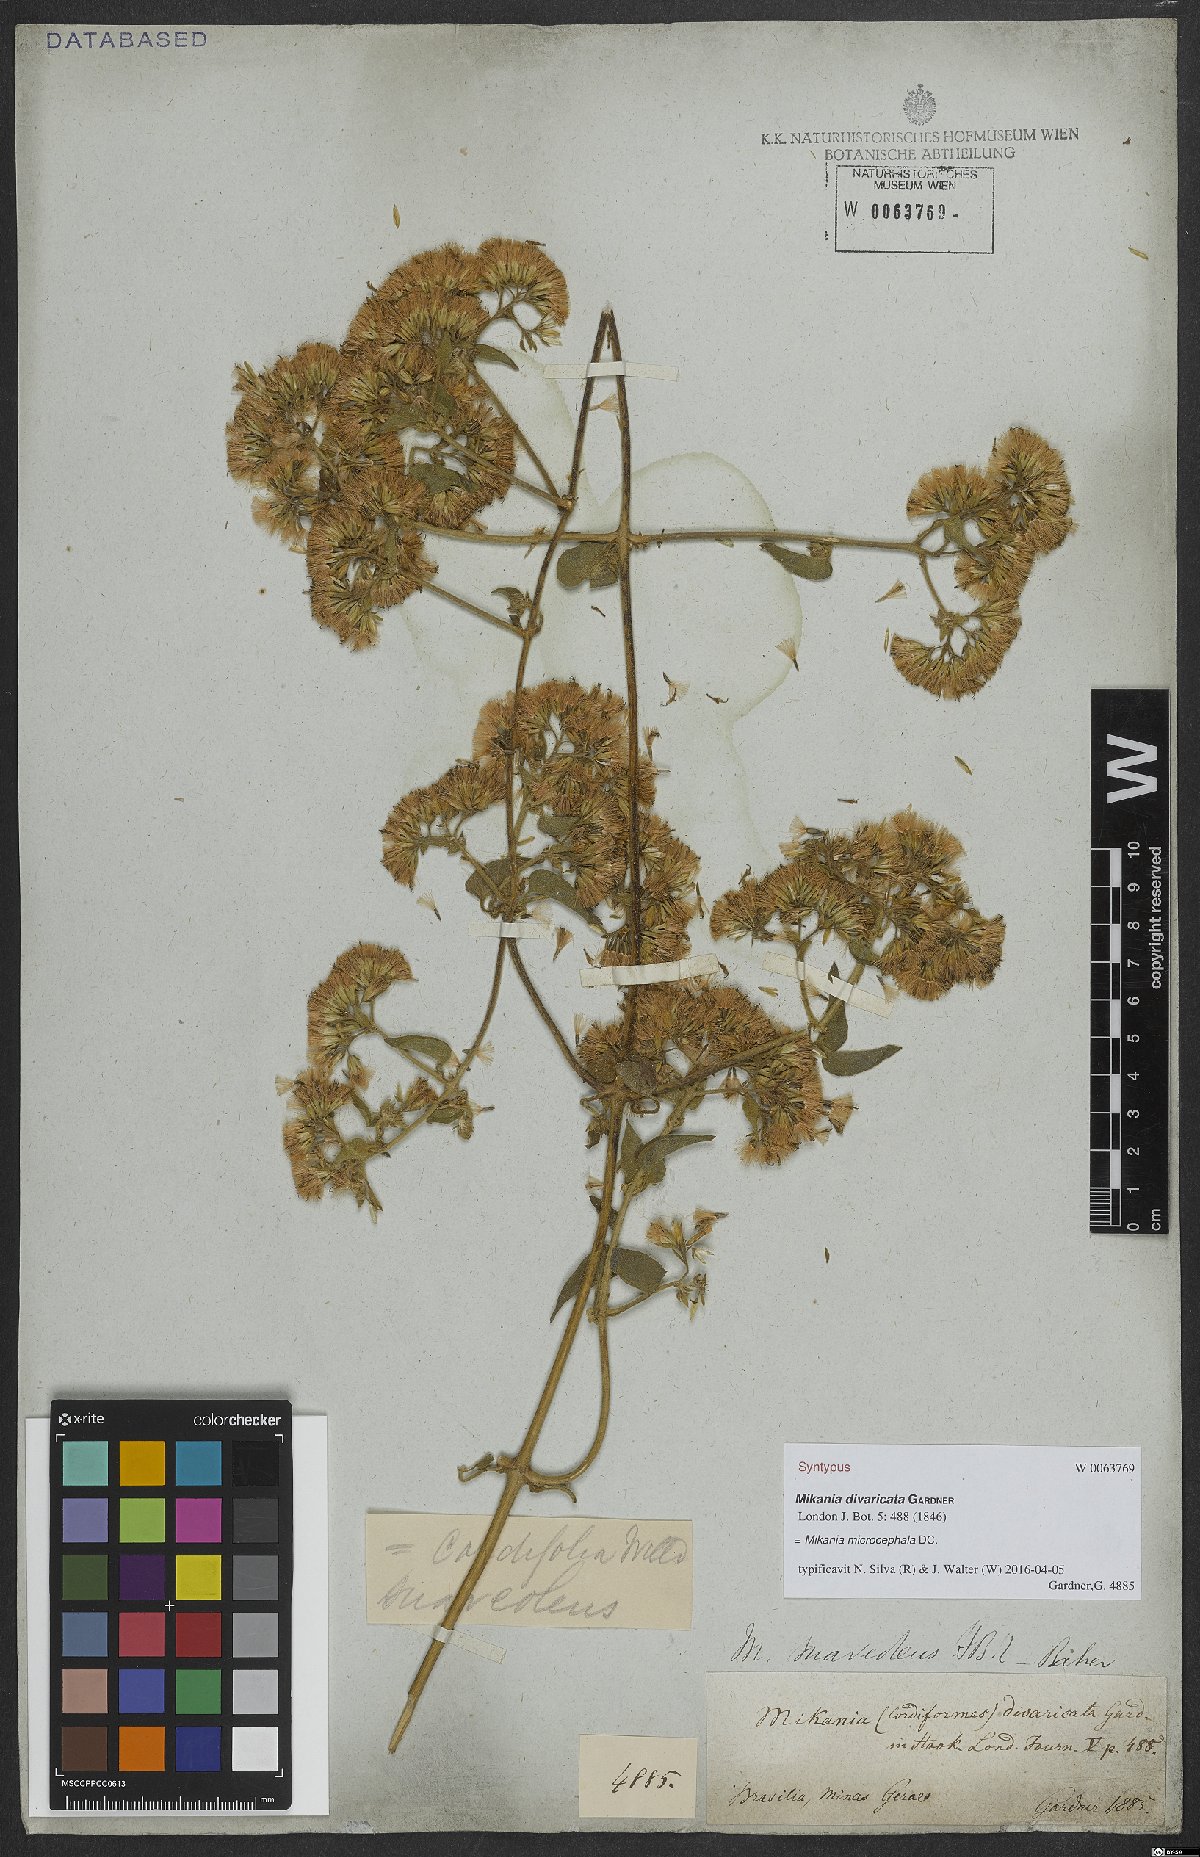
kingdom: Plantae
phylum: Tracheophyta
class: Magnoliopsida
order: Asterales
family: Asteraceae
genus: Mikania
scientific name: Mikania microcephala
